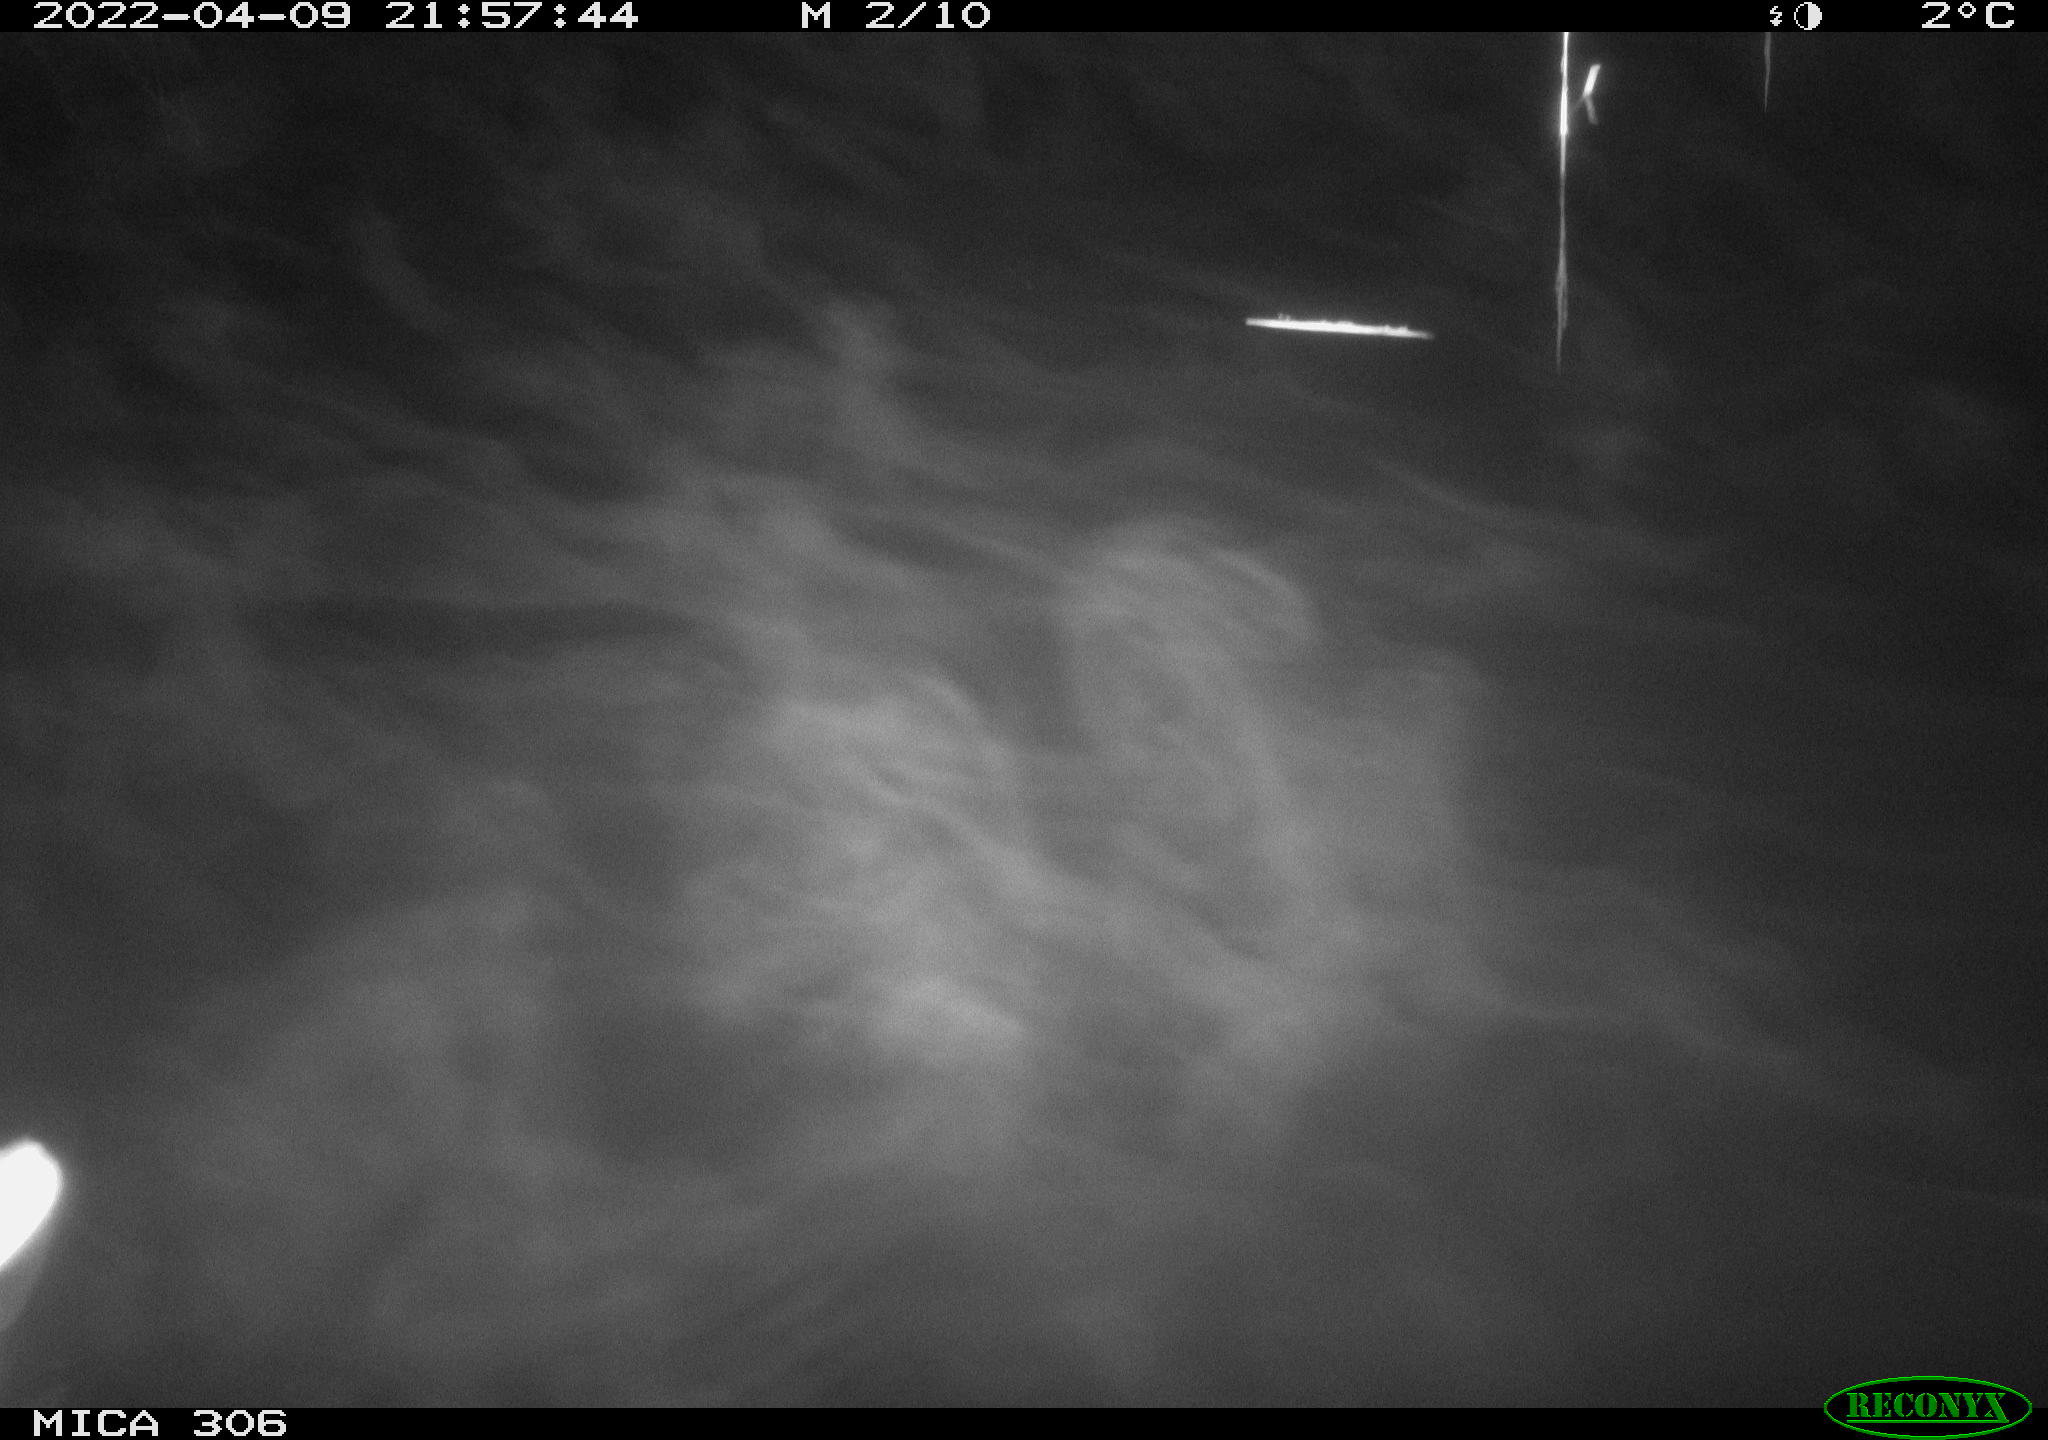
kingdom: Animalia
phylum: Chordata
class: Aves
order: Anseriformes
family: Anatidae
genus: Anas
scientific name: Anas platyrhynchos
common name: Mallard
